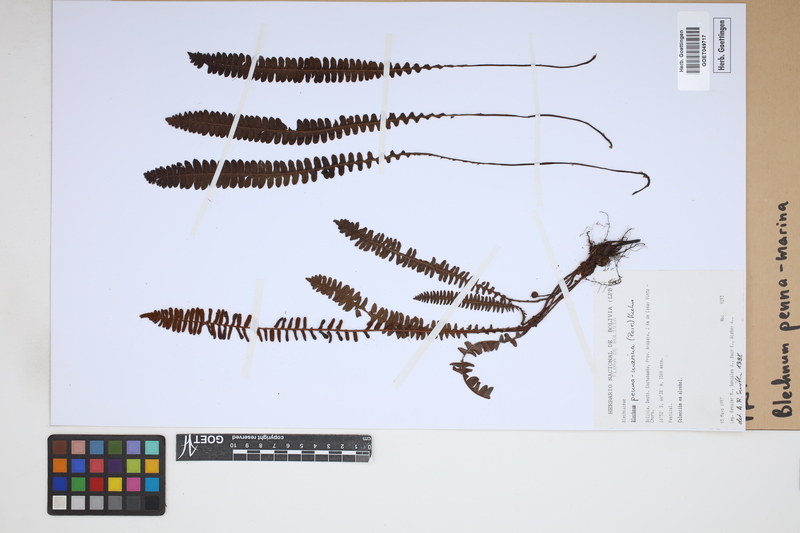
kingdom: Plantae
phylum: Tracheophyta
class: Polypodiopsida
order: Polypodiales
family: Blechnaceae
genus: Austroblechnum
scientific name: Austroblechnum penna-marina
